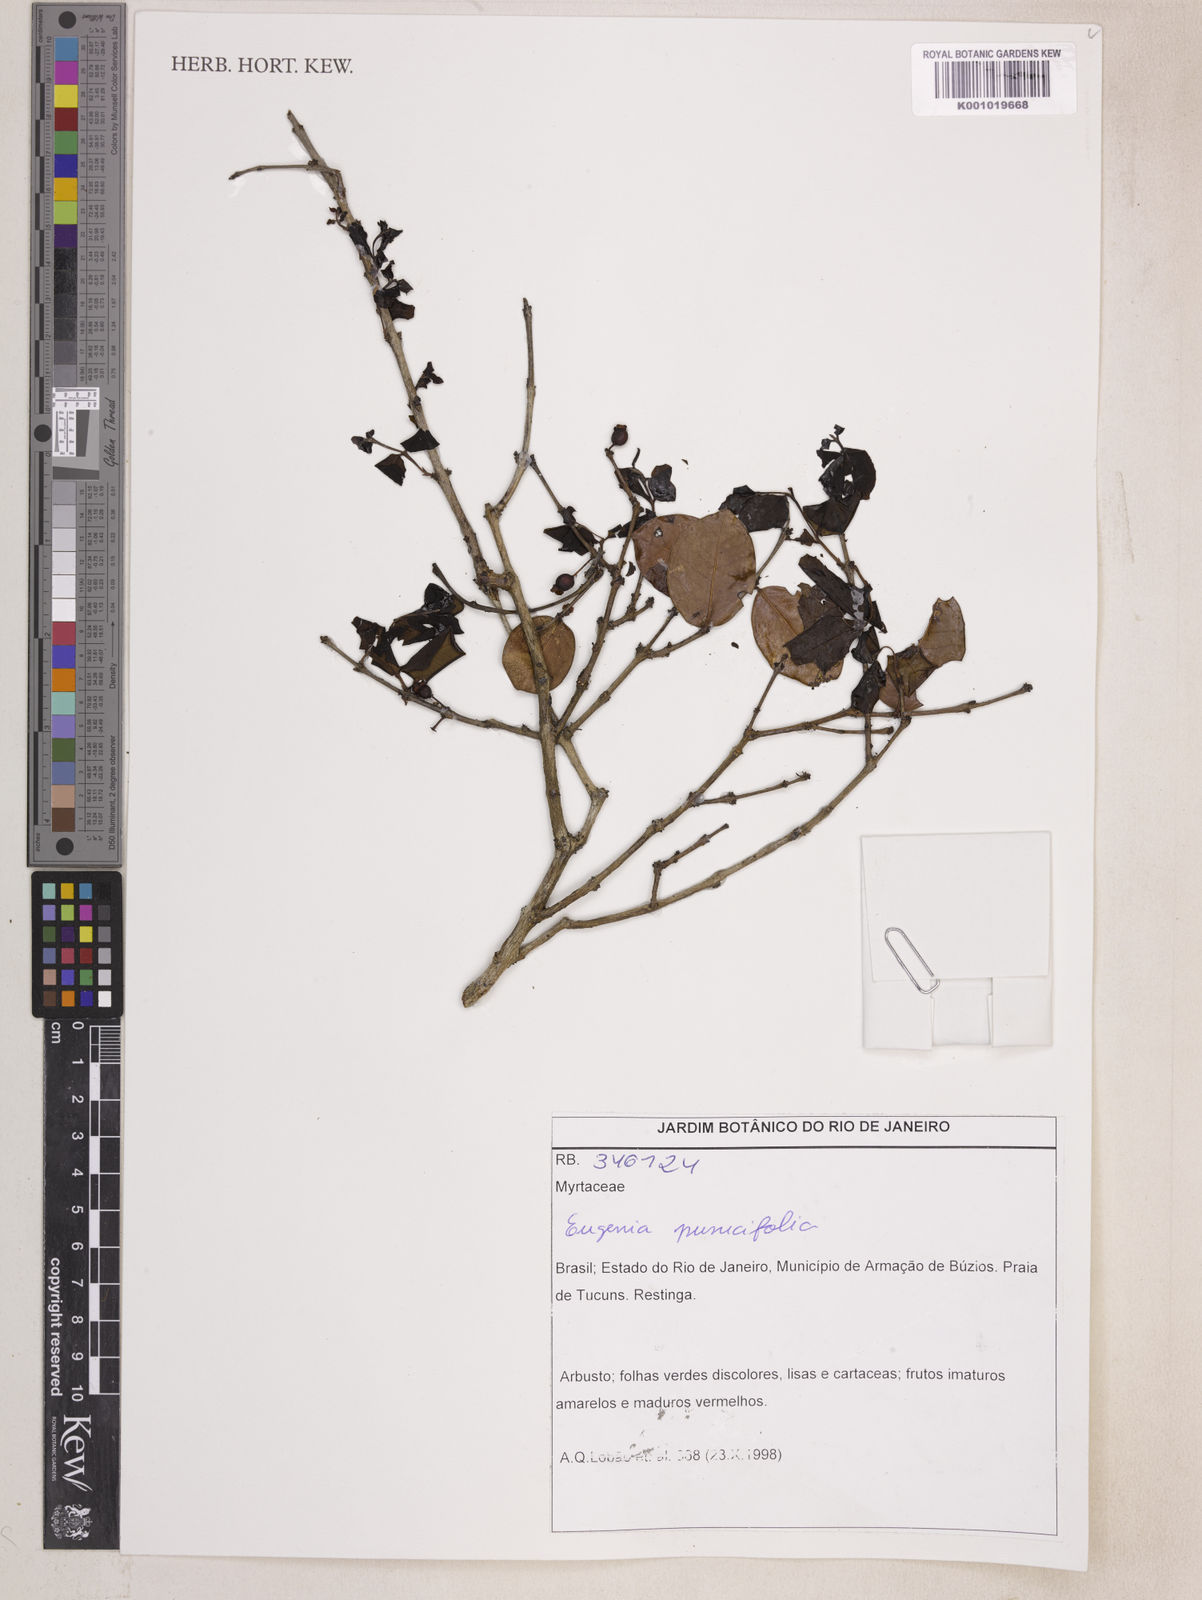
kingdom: Plantae
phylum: Tracheophyta
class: Magnoliopsida
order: Myrtales
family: Myrtaceae
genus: Eugenia
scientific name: Eugenia punicifolia
